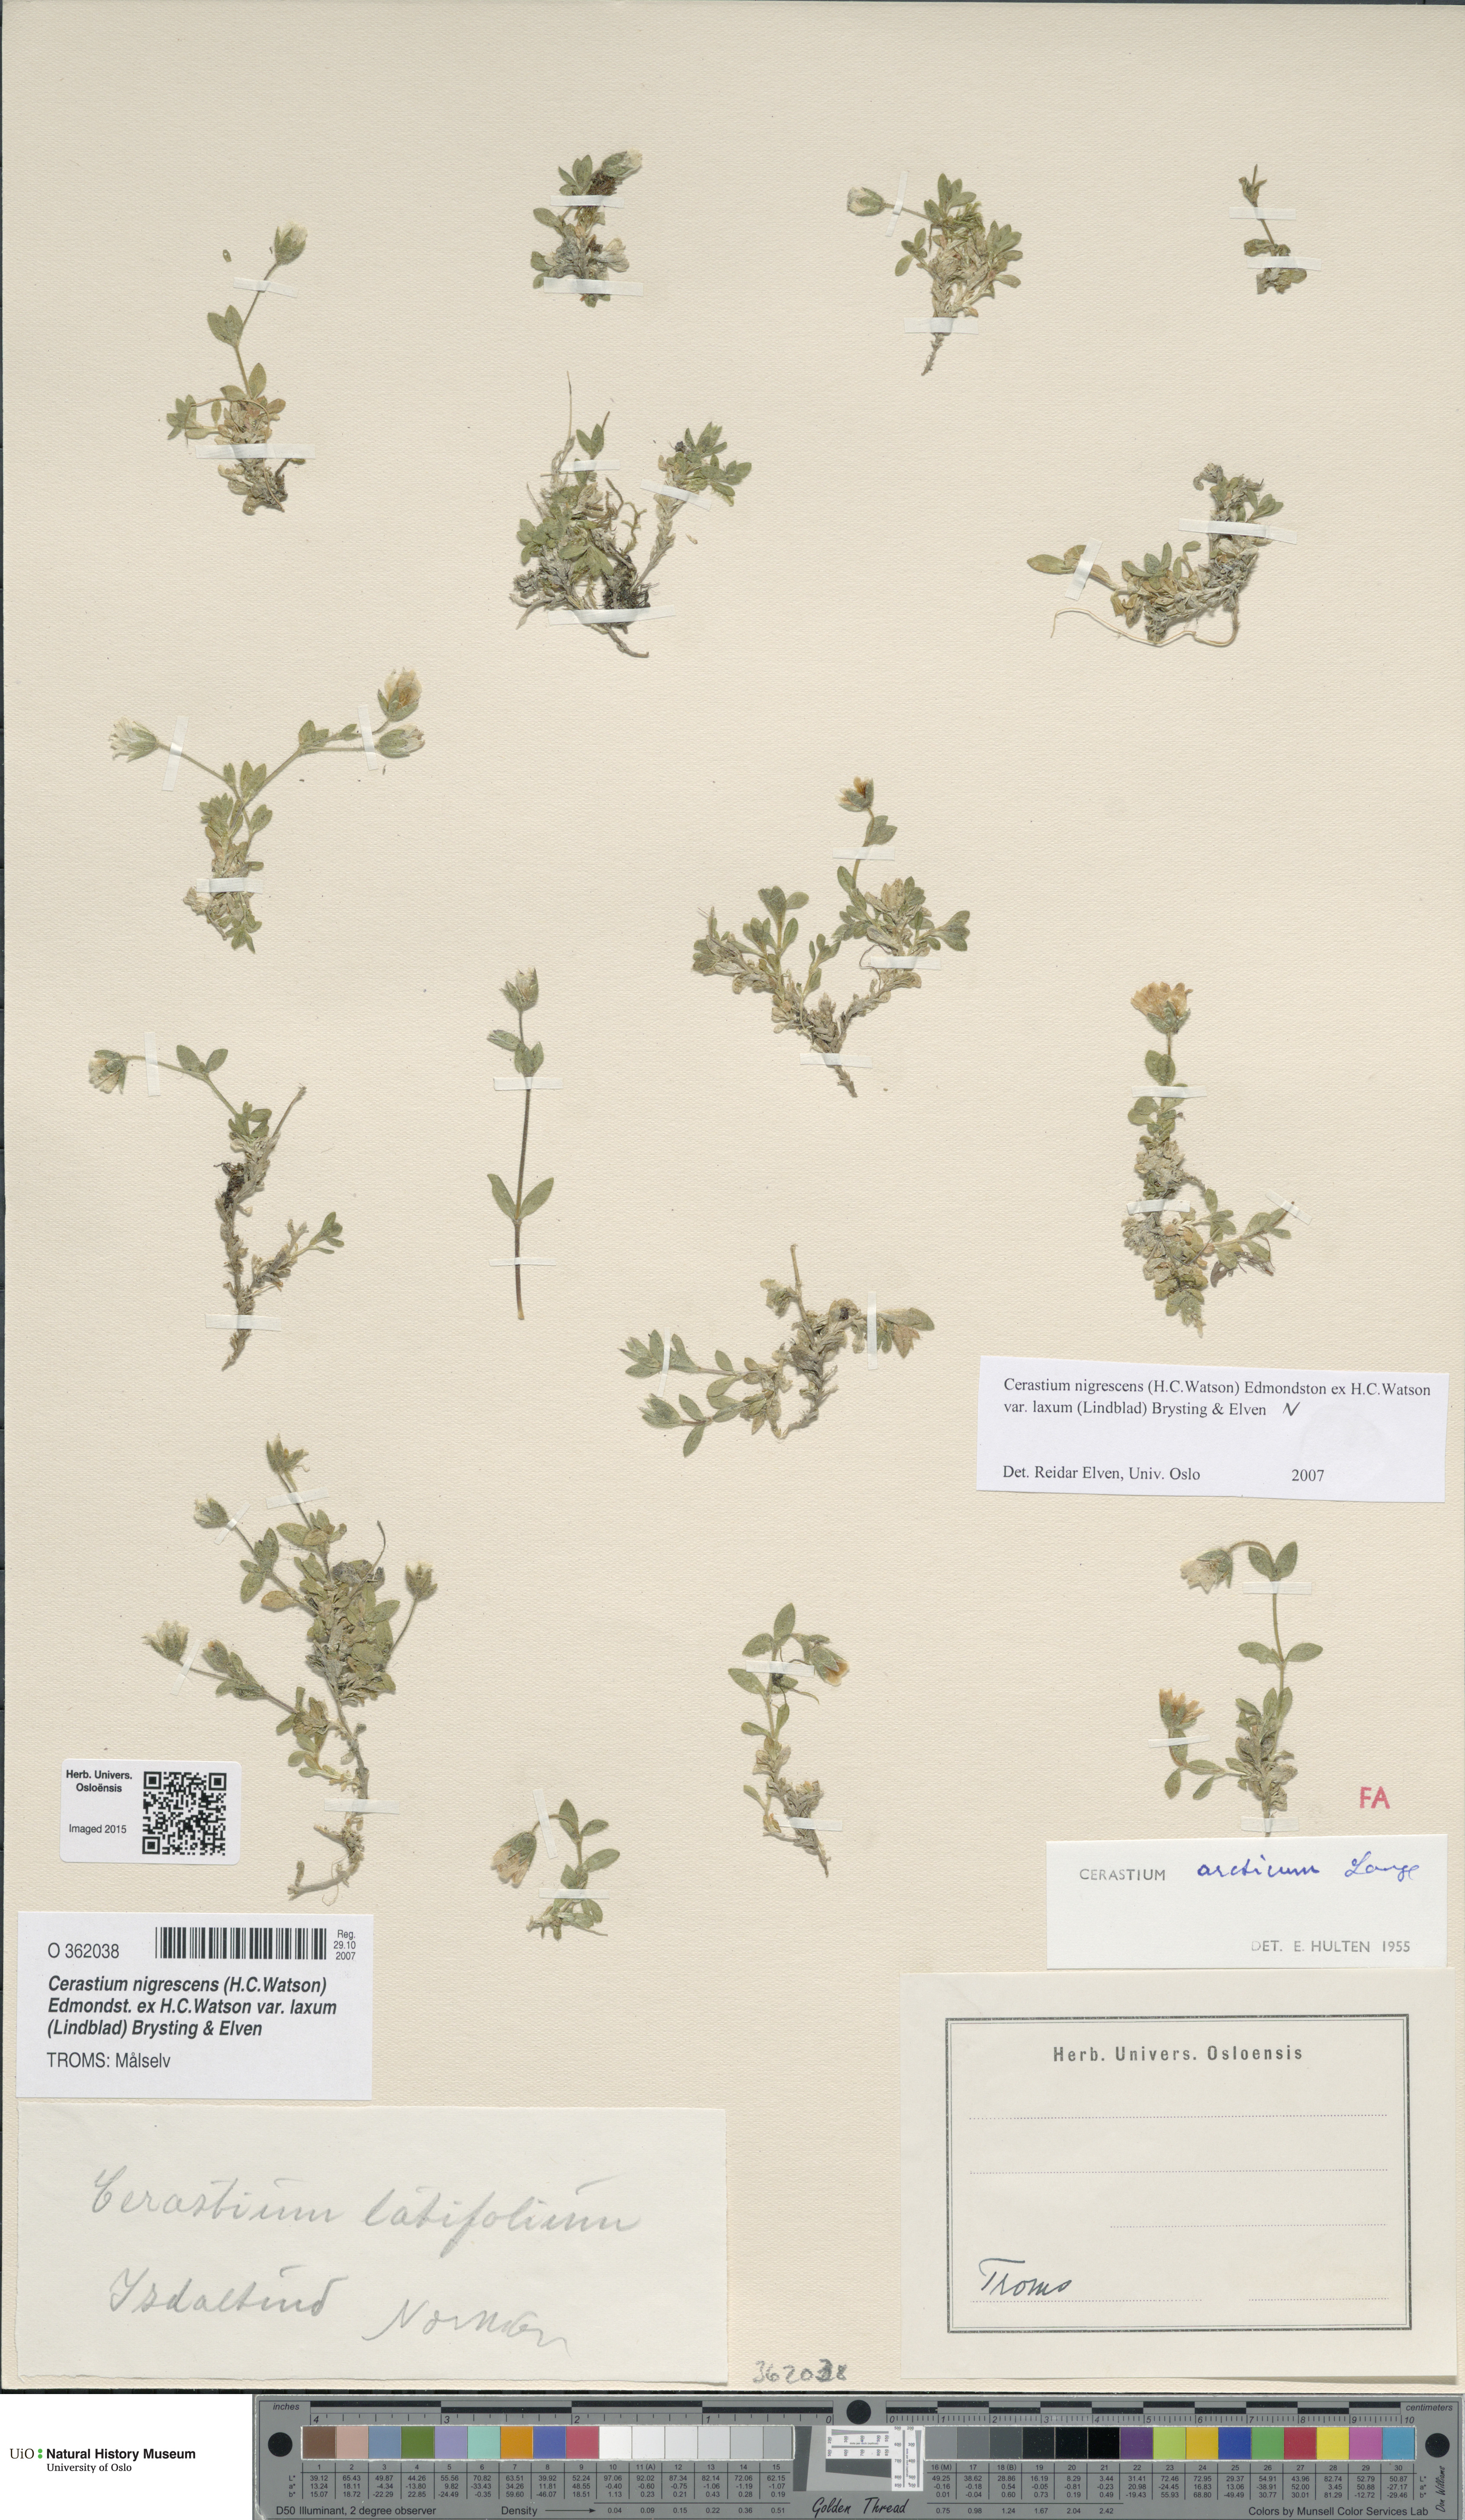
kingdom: Plantae
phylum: Tracheophyta
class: Magnoliopsida
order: Caryophyllales
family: Caryophyllaceae
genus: Cerastium
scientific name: Cerastium nigrescens
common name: Shetland mouse-ear
